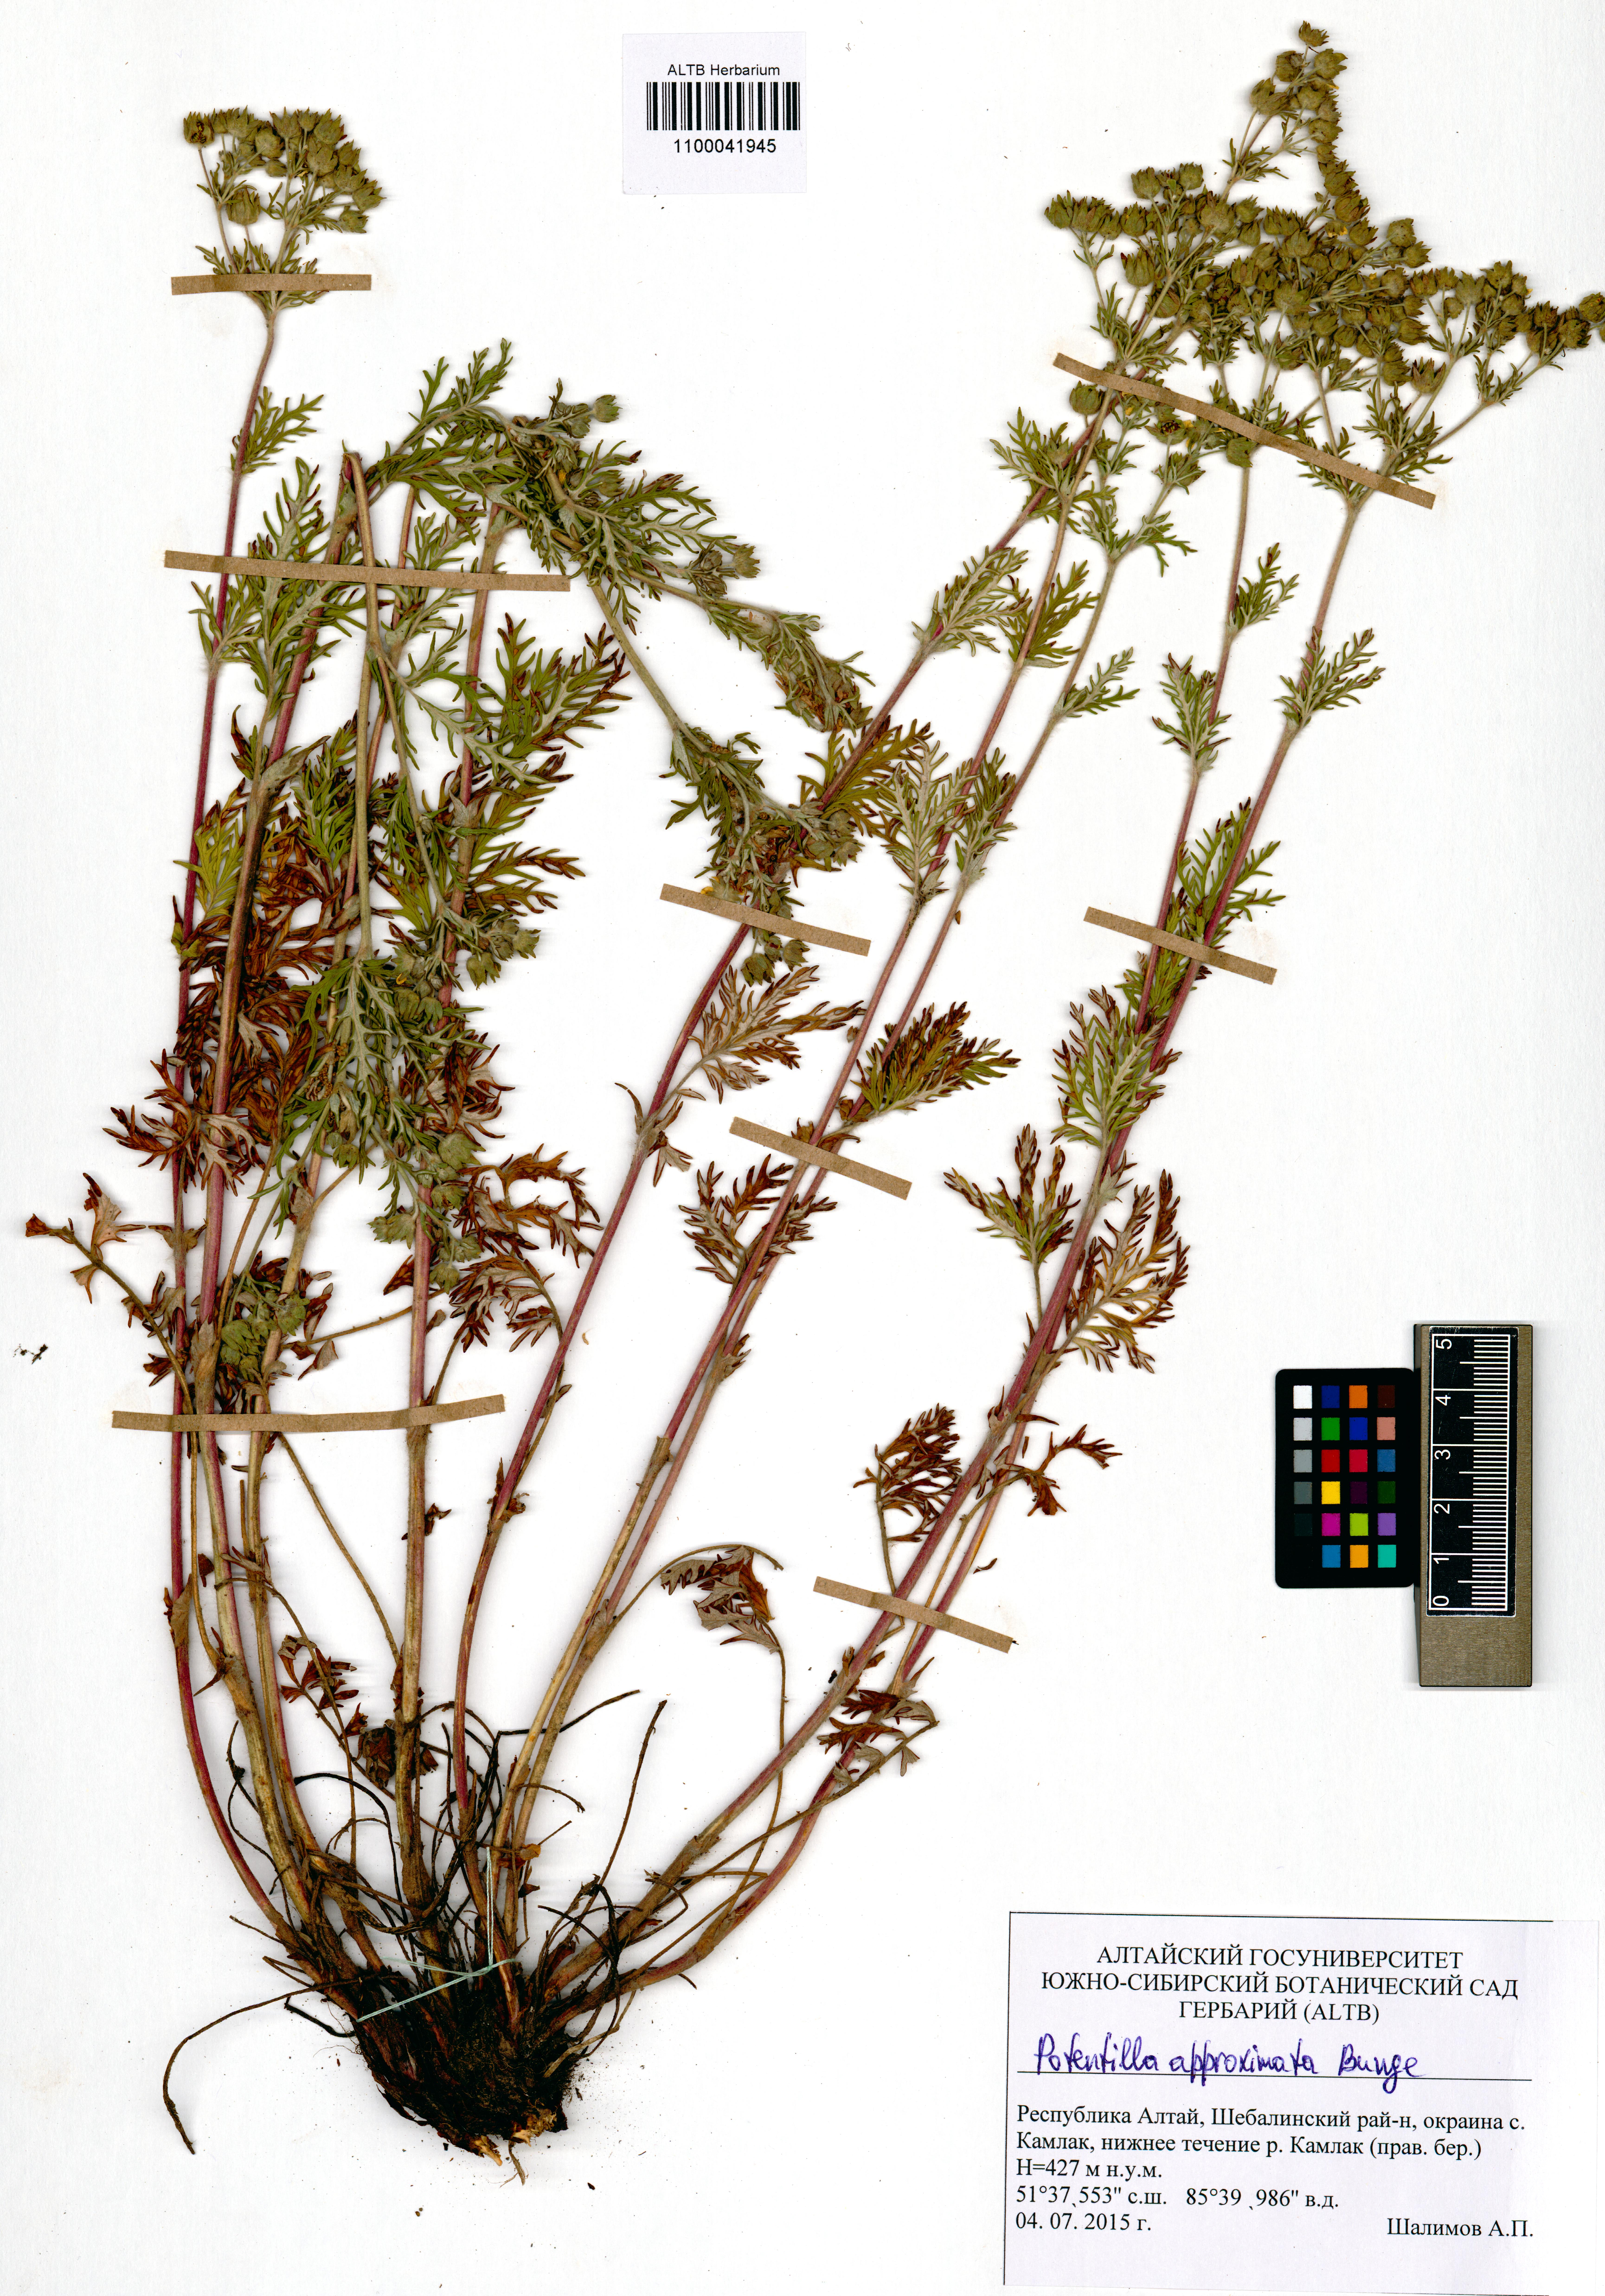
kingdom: Plantae
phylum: Tracheophyta
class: Magnoliopsida
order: Rosales
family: Rosaceae
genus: Potentilla
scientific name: Potentilla conferta
